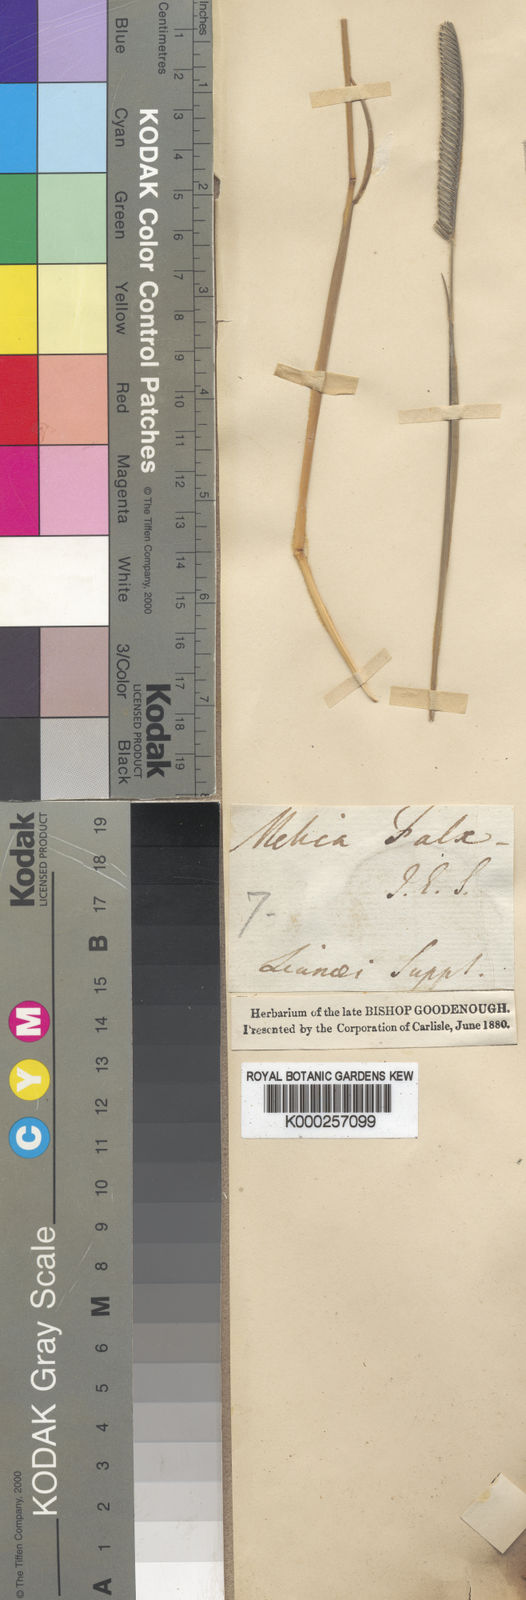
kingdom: Plantae
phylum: Tracheophyta
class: Liliopsida
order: Poales
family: Poaceae
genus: Harpochloa
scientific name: Harpochloa falx
